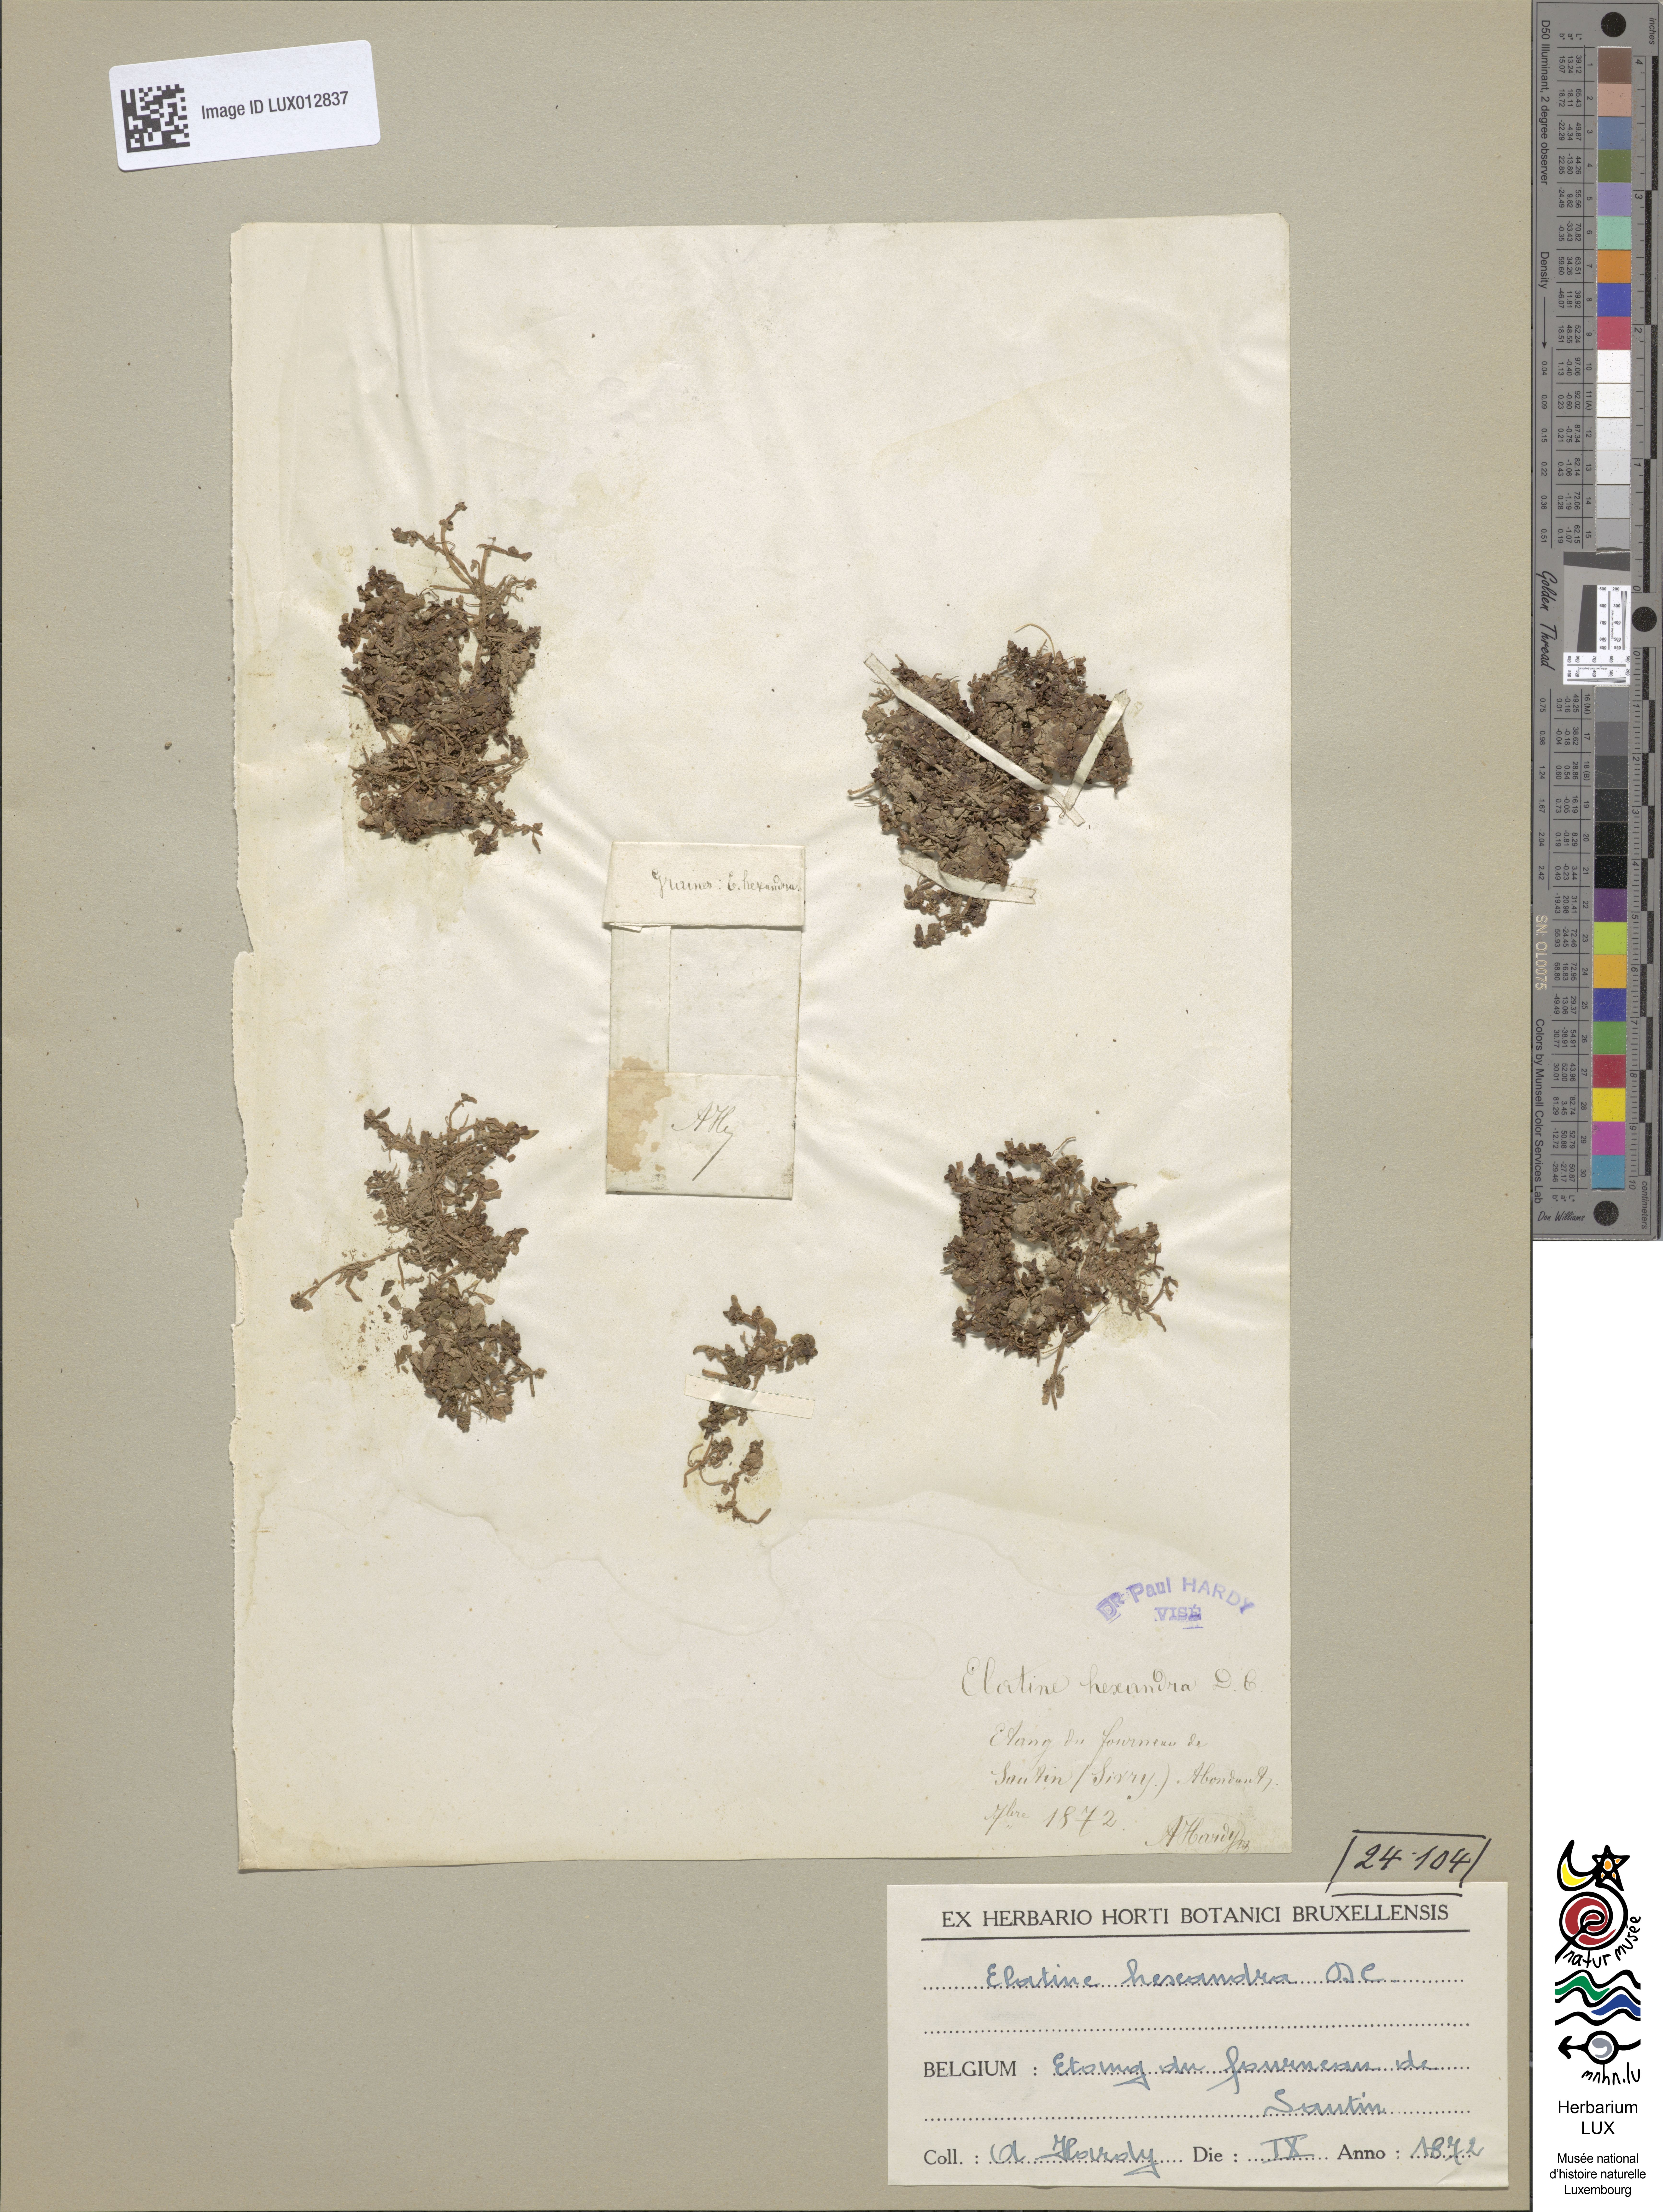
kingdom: Plantae
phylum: Tracheophyta
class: Magnoliopsida
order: Malpighiales
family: Elatinaceae
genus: Elatine
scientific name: Elatine hexandra
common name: Six-stamened waterwort
